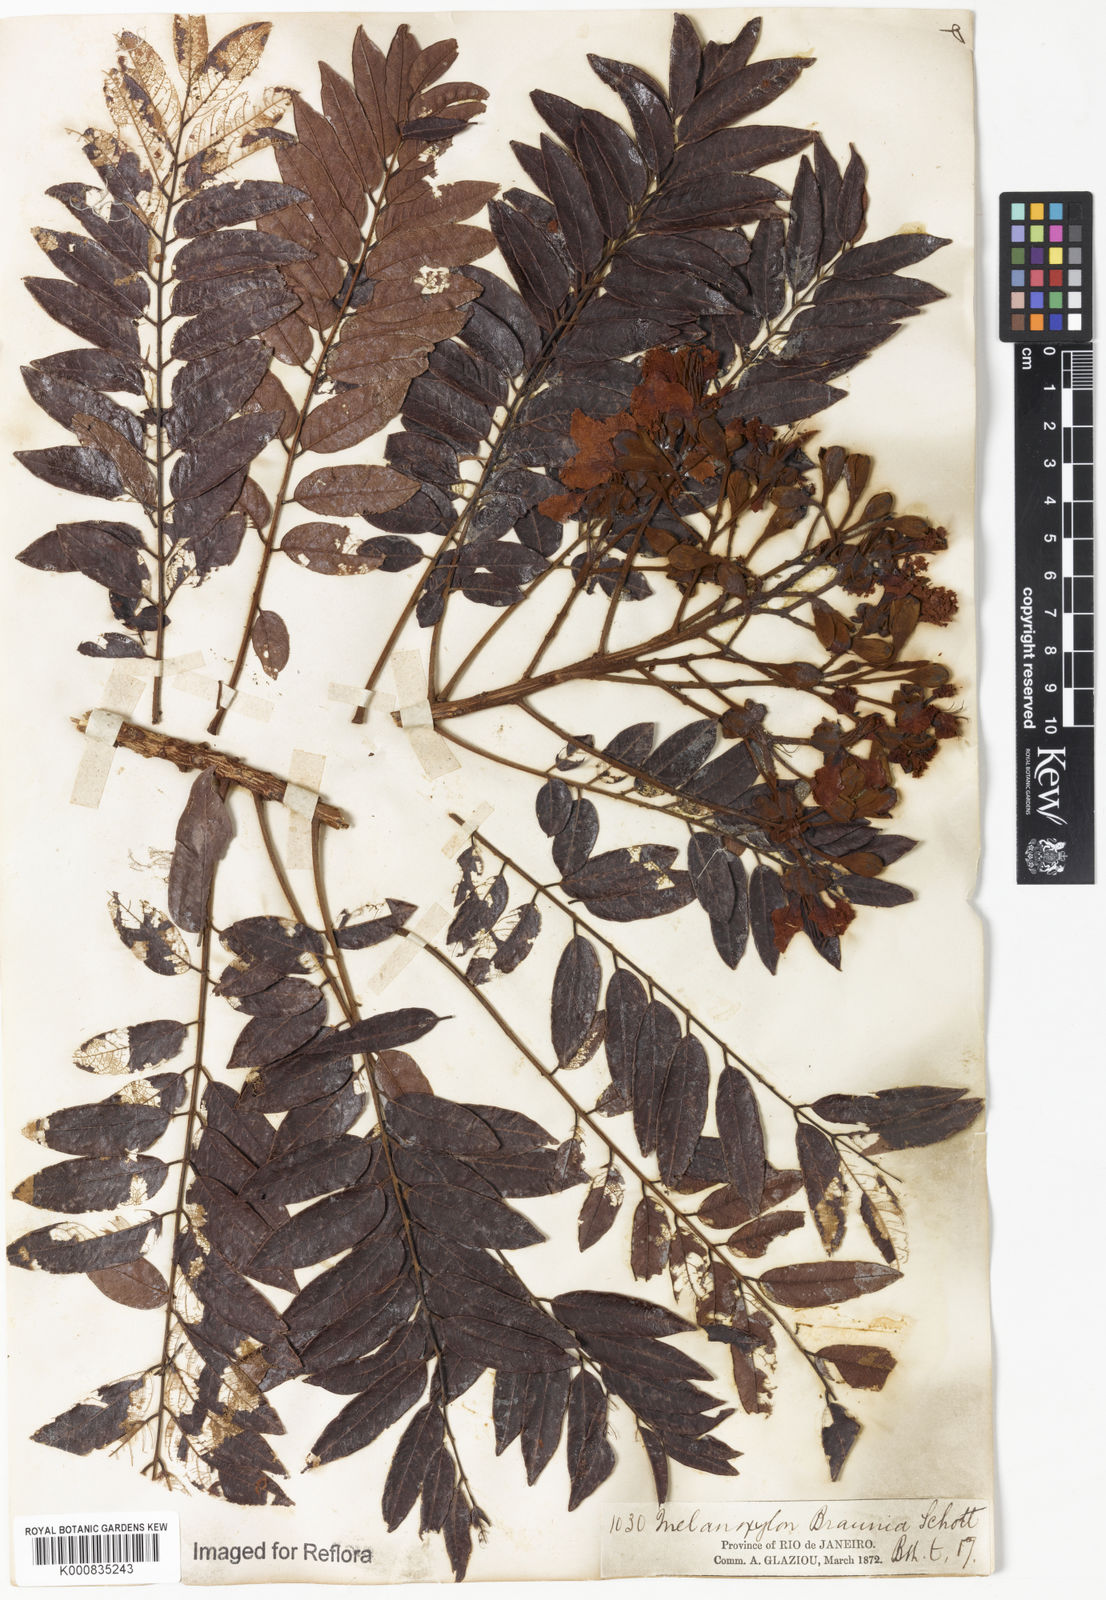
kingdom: Plantae
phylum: Tracheophyta
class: Magnoliopsida
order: Fabales
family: Fabaceae
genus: Melanoxylum
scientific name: Melanoxylum brauna
